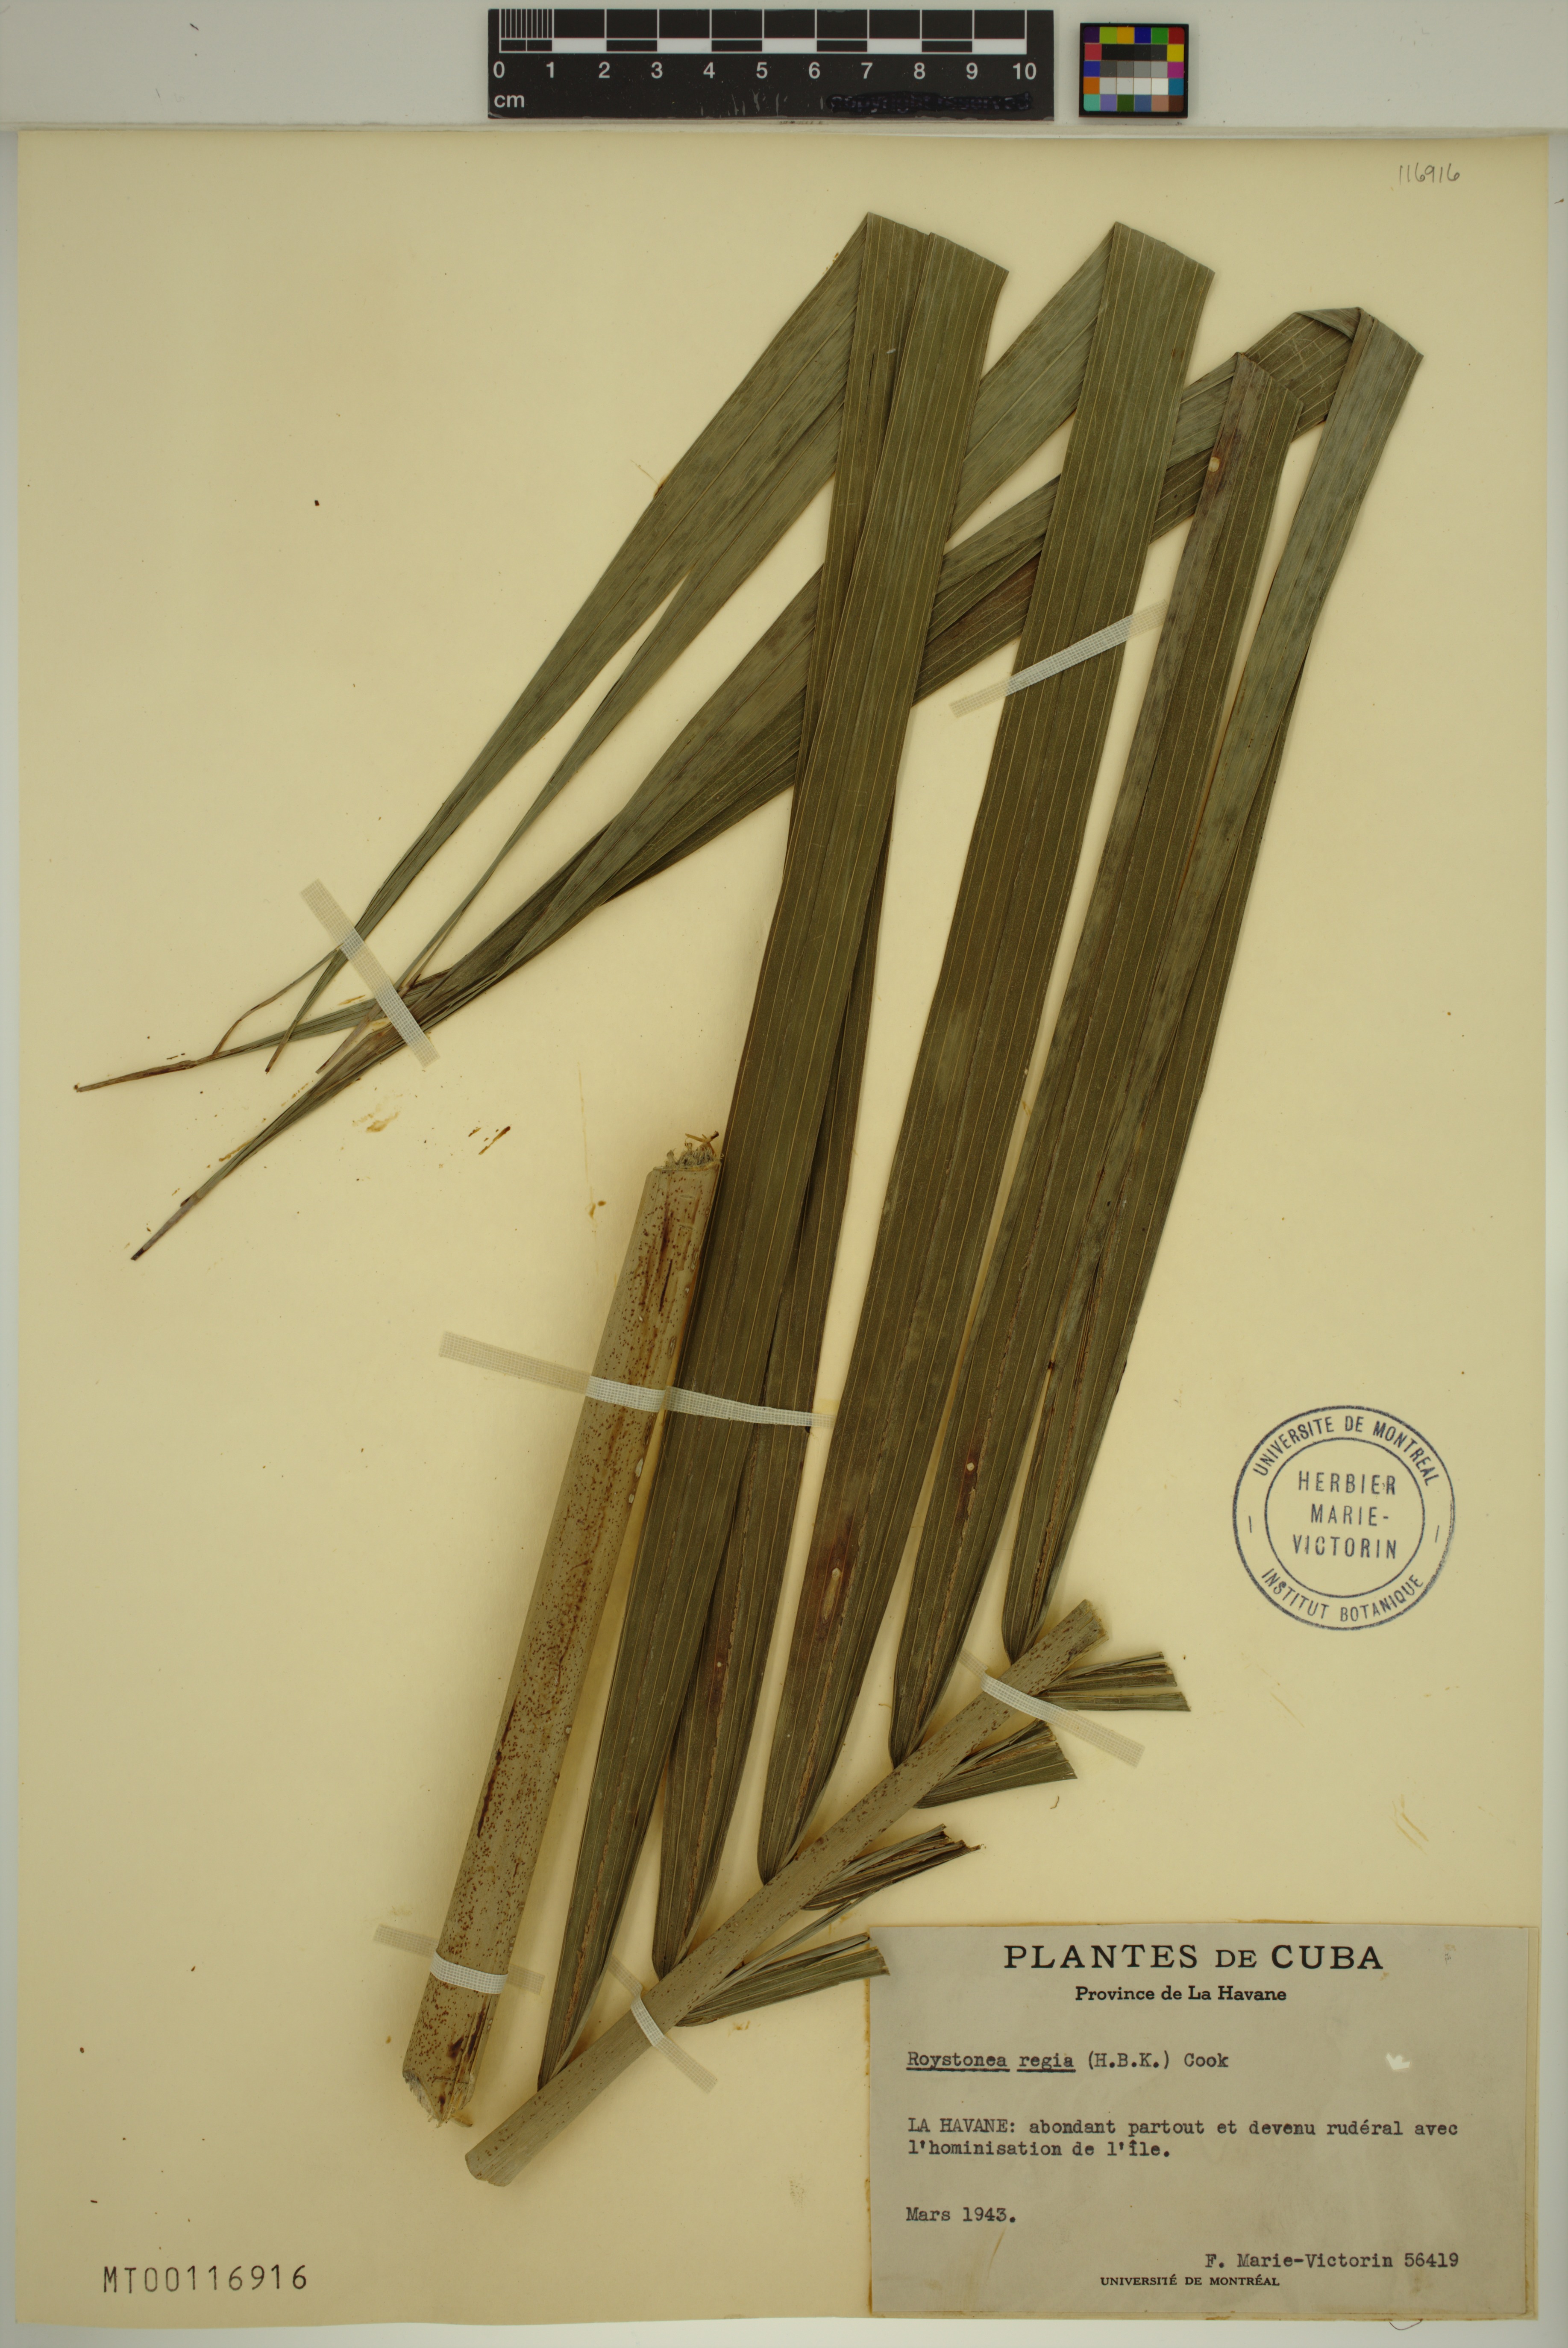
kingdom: Plantae
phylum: Tracheophyta
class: Liliopsida
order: Arecales
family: Arecaceae
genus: Roystonea
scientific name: Roystonea regia
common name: Florida royal palm
